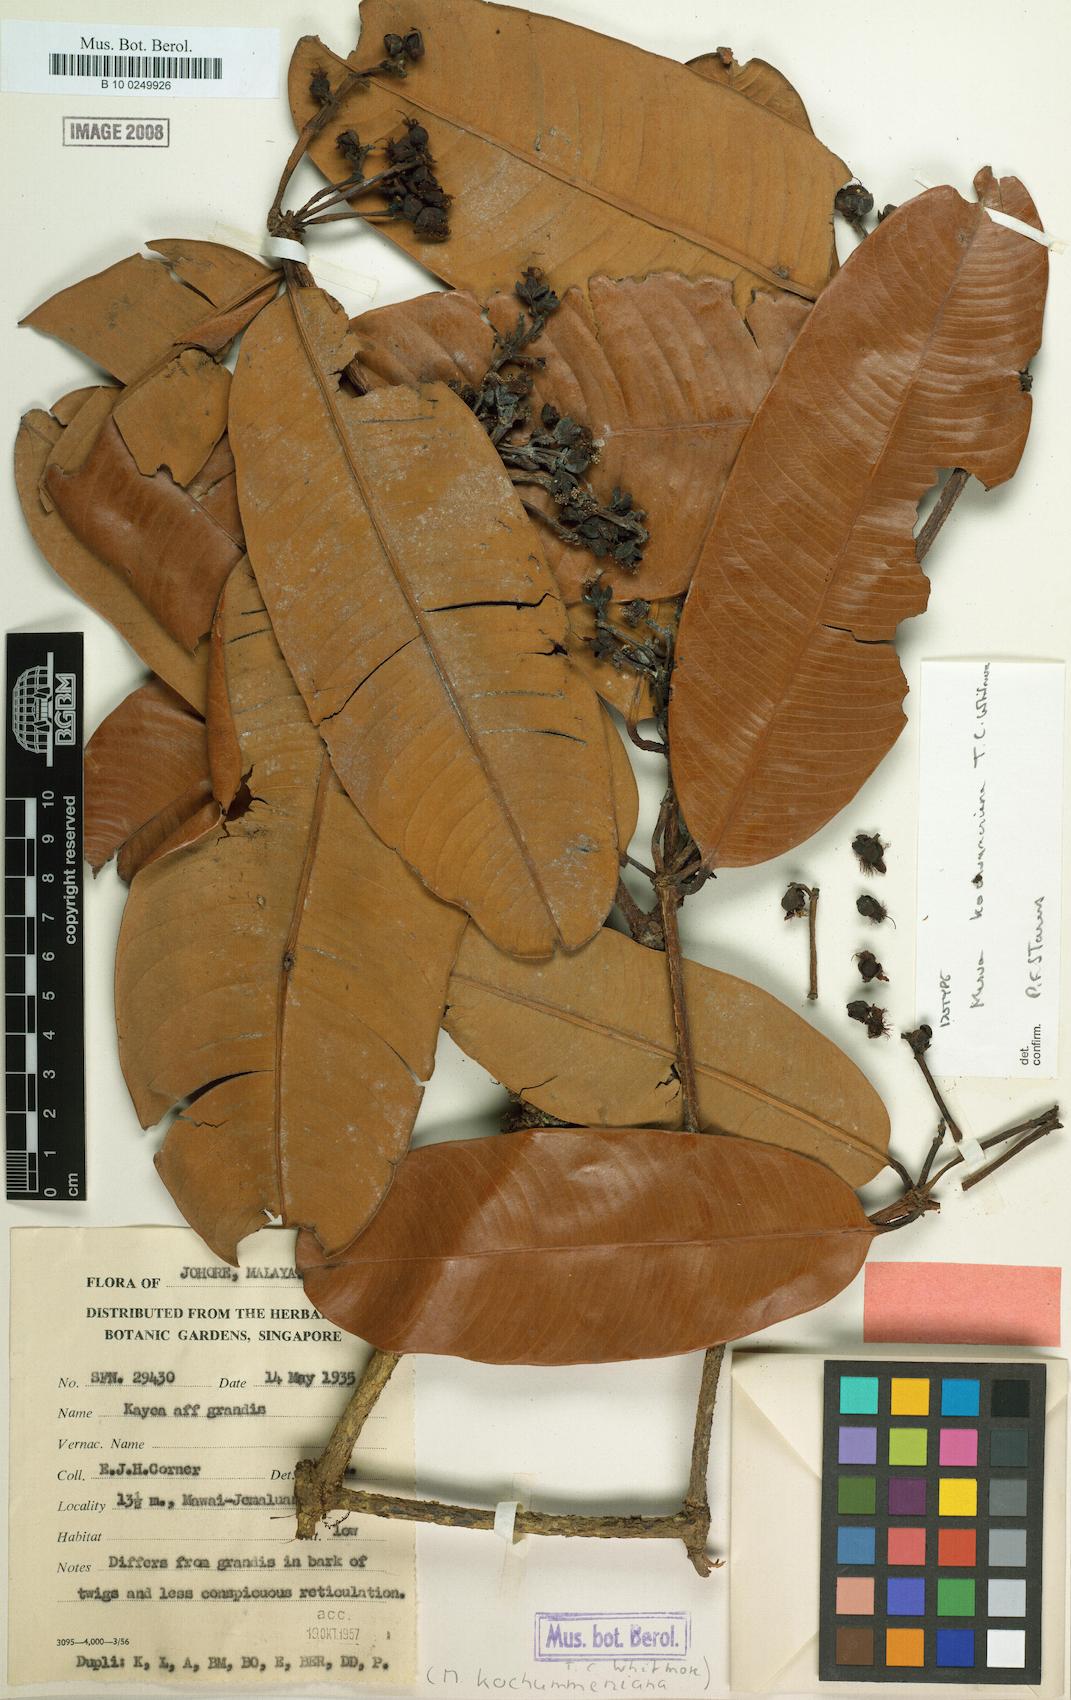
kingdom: Plantae
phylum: Tracheophyta
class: Magnoliopsida
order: Malpighiales
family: Calophyllaceae
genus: Mesua
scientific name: Mesua kochummeniana
